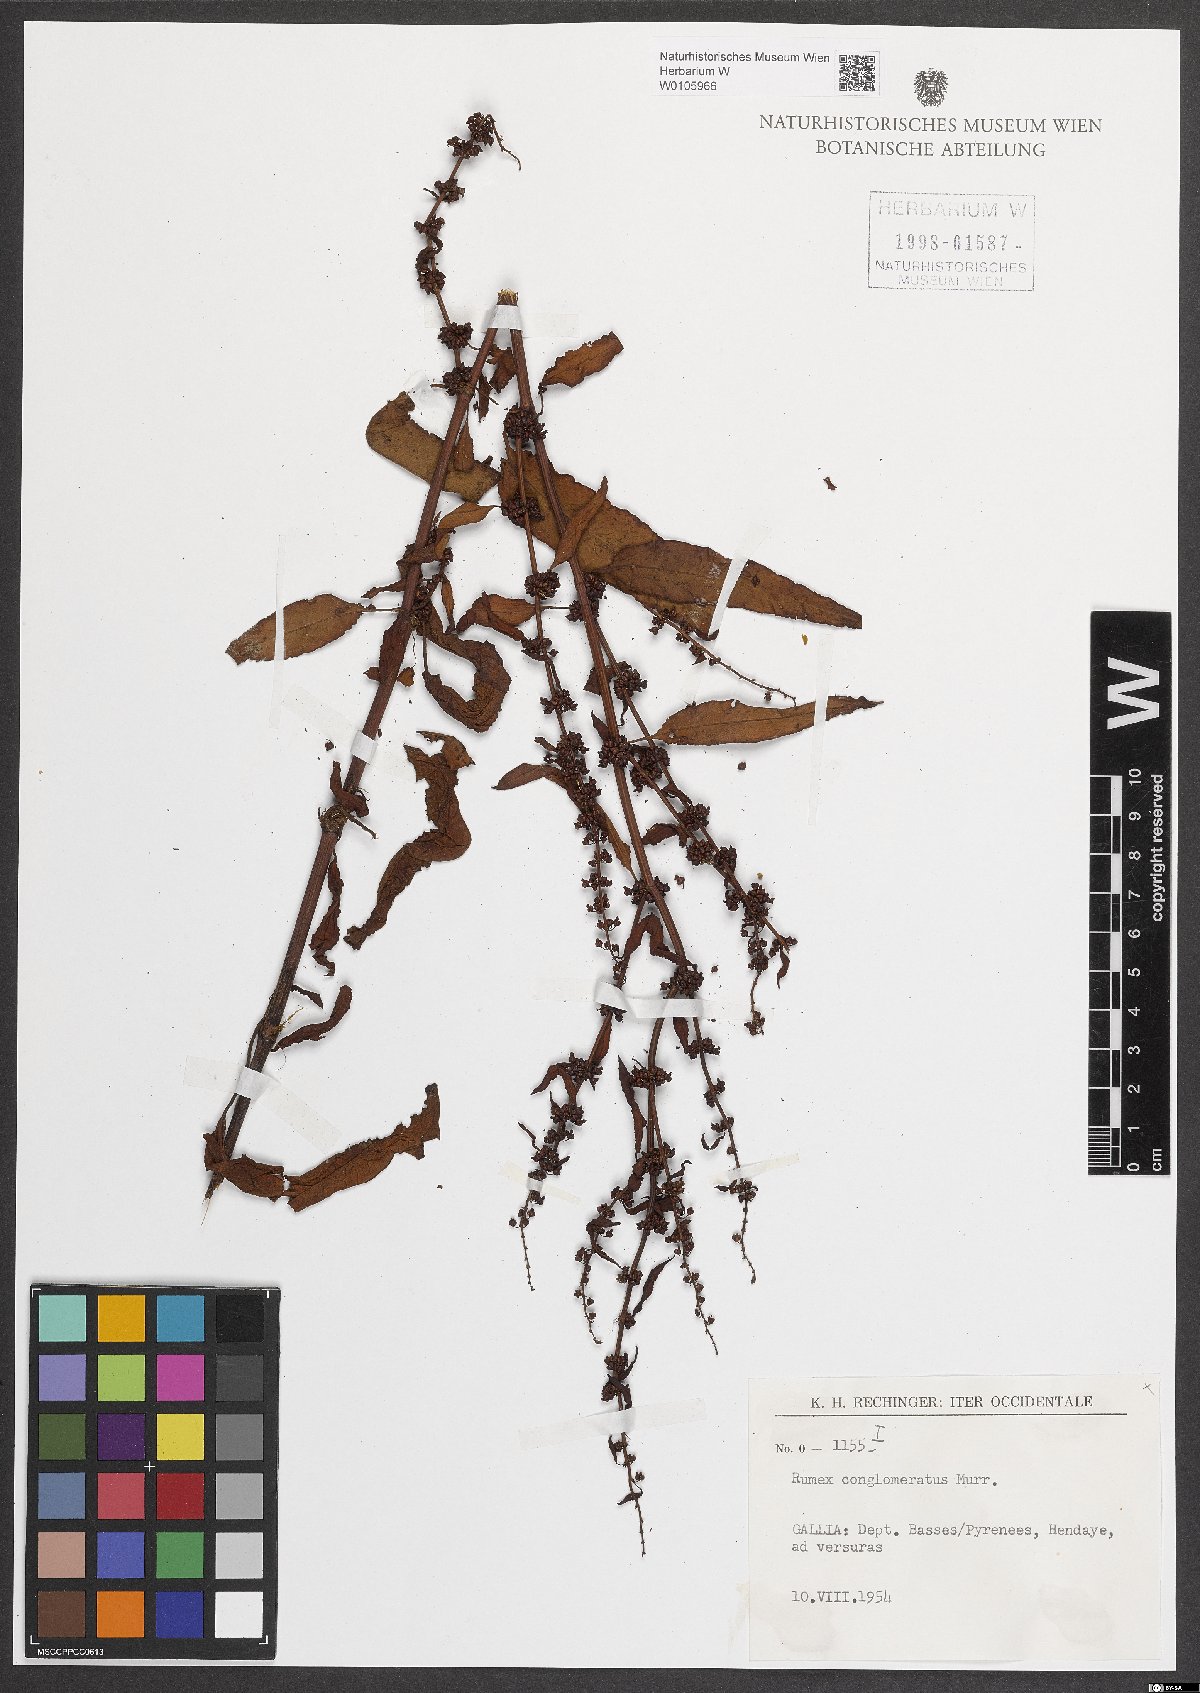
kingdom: Plantae
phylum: Tracheophyta
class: Magnoliopsida
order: Caryophyllales
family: Polygonaceae
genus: Rumex
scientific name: Rumex conglomeratus
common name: Clustered dock
